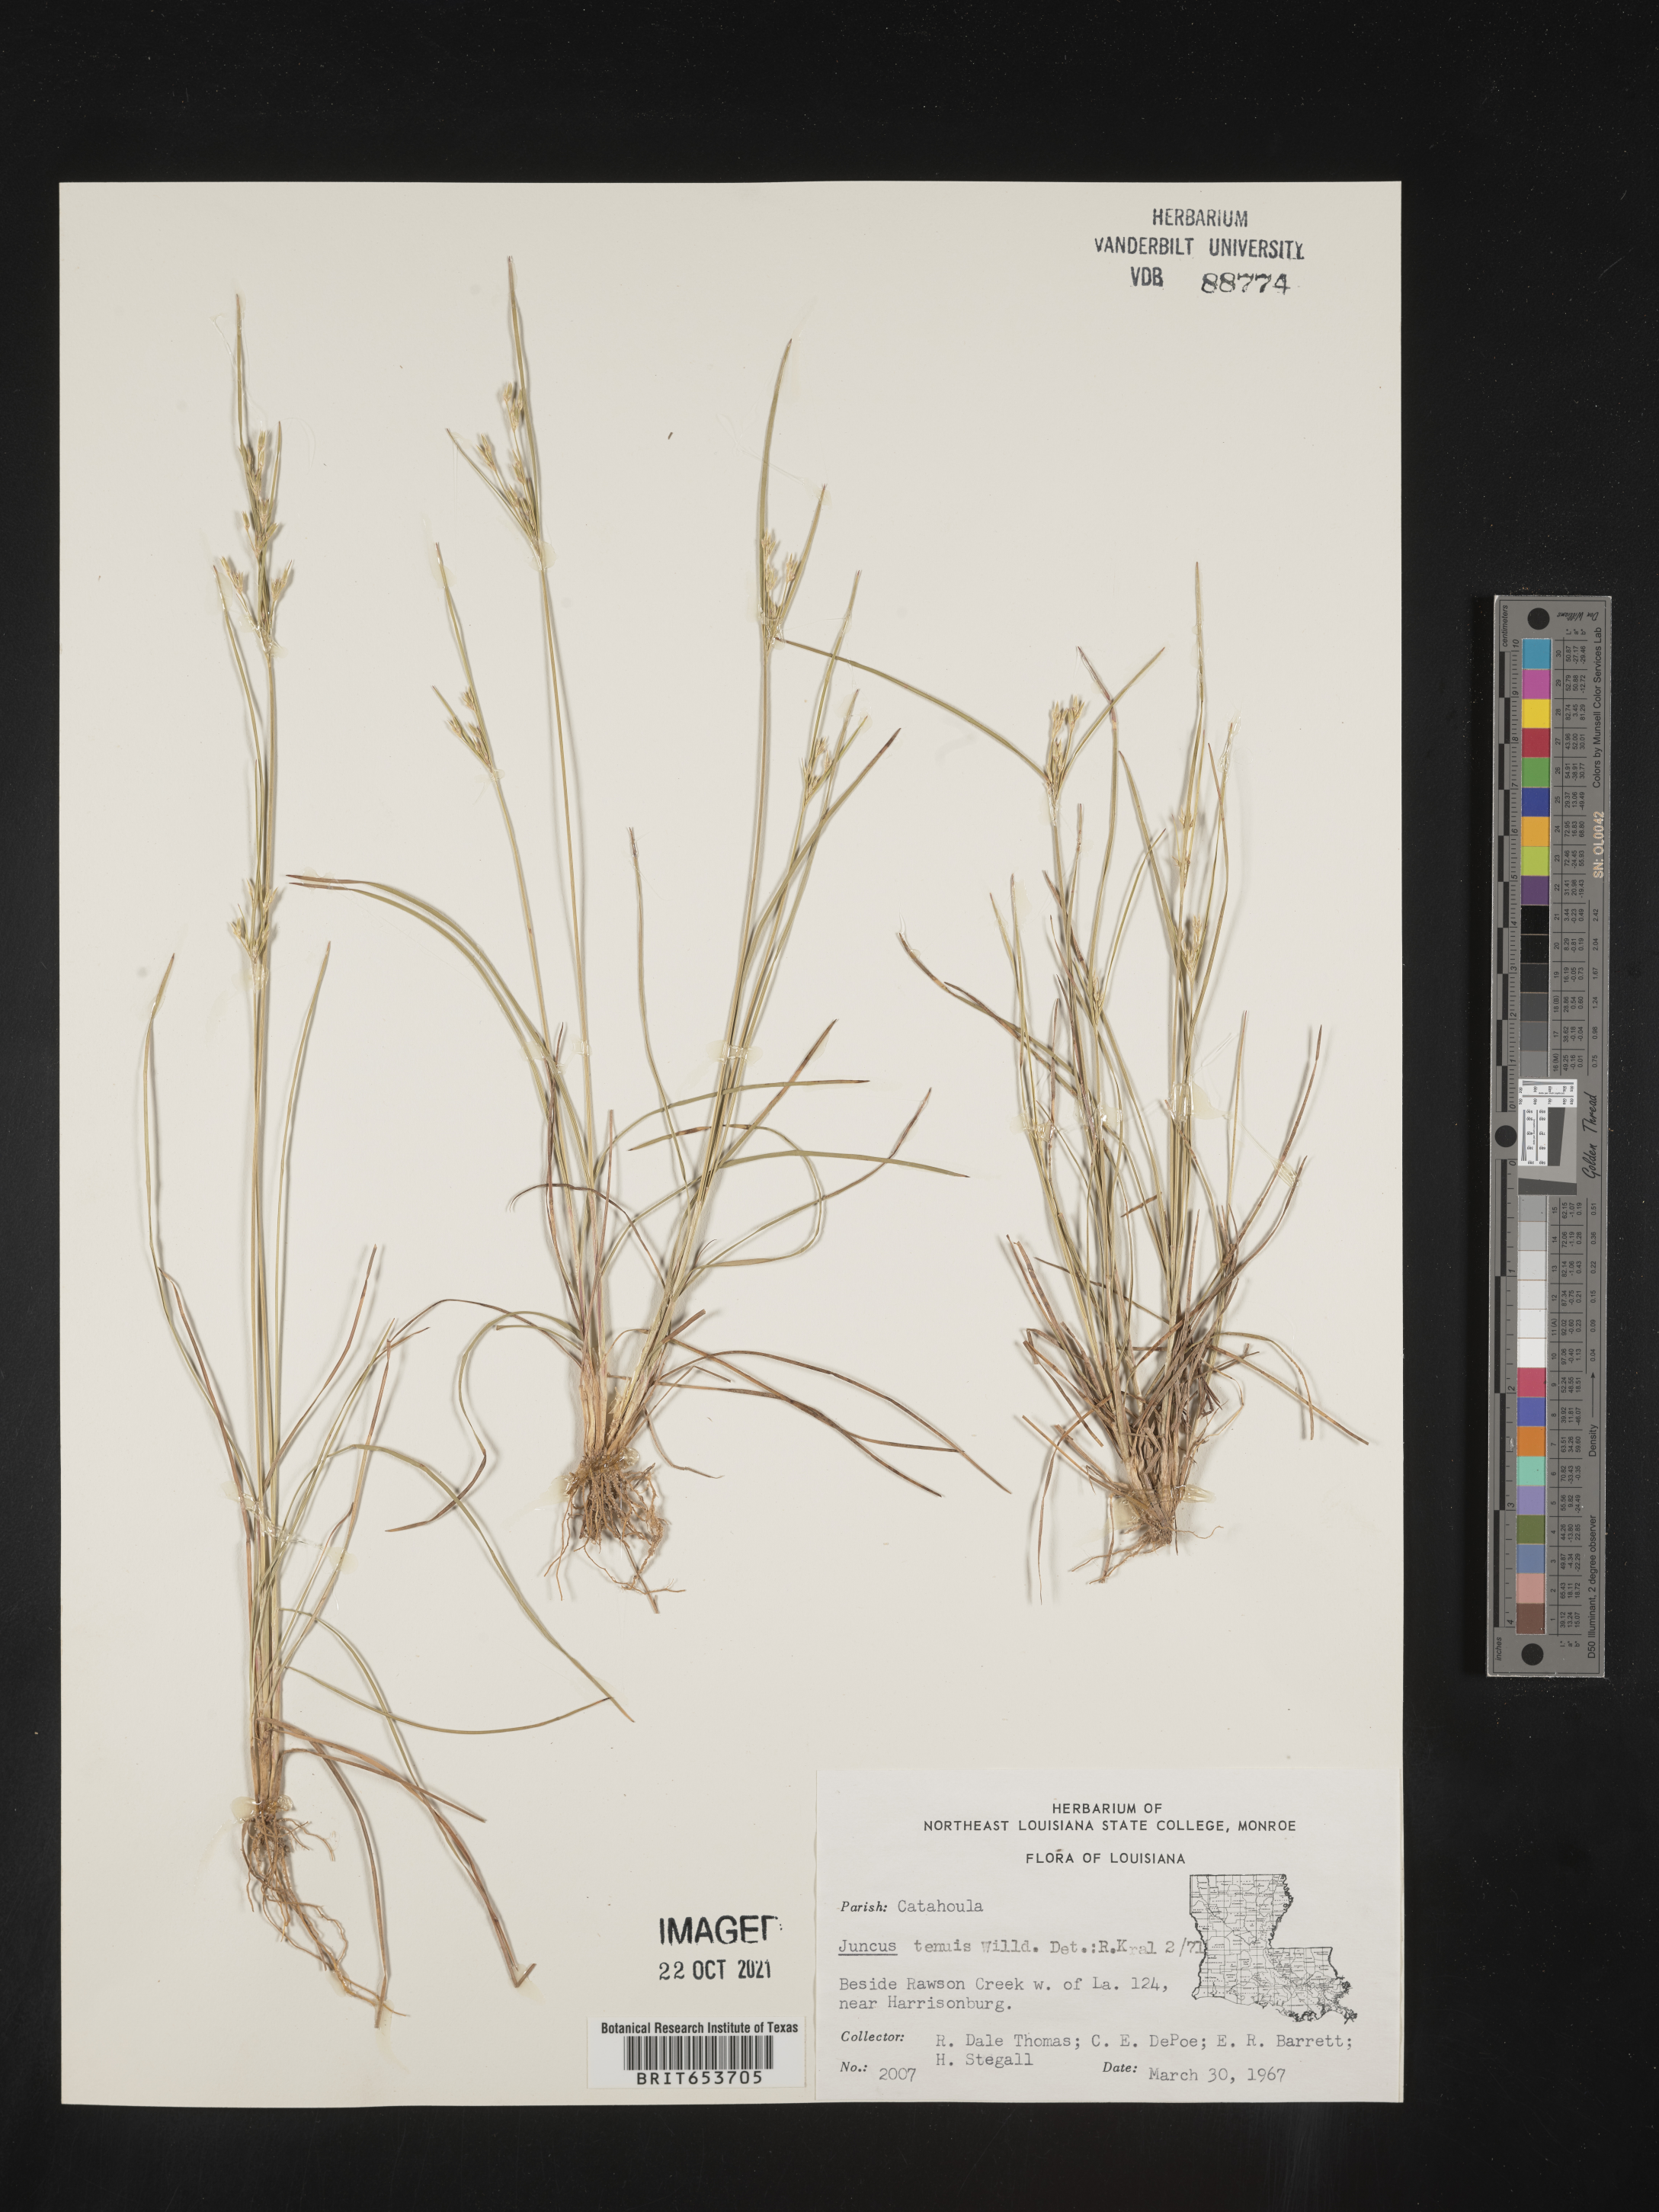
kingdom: Plantae
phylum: Tracheophyta
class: Liliopsida
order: Poales
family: Juncaceae
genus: Juncus
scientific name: Juncus tenuis
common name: Slender rush
